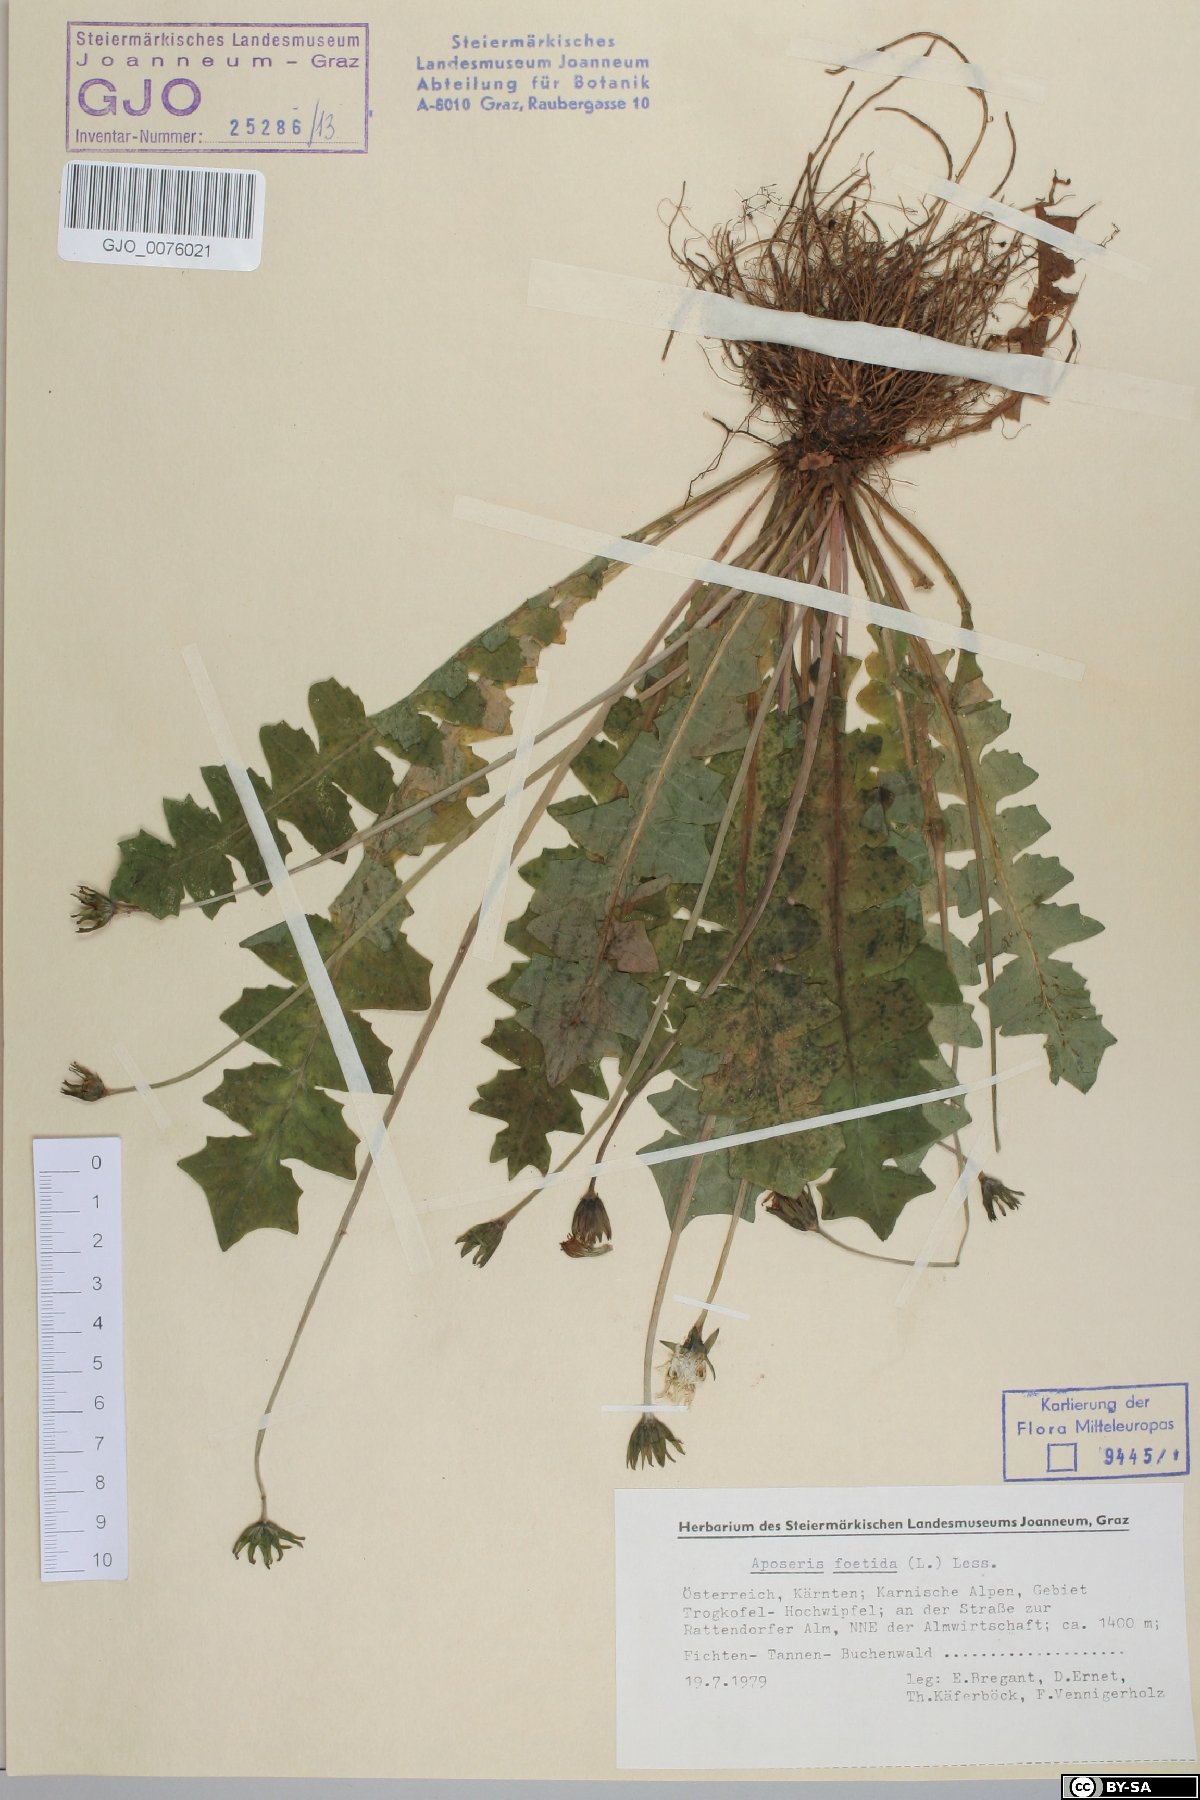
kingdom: Plantae
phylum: Tracheophyta
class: Magnoliopsida
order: Asterales
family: Asteraceae
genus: Aposeris
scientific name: Aposeris foetida
